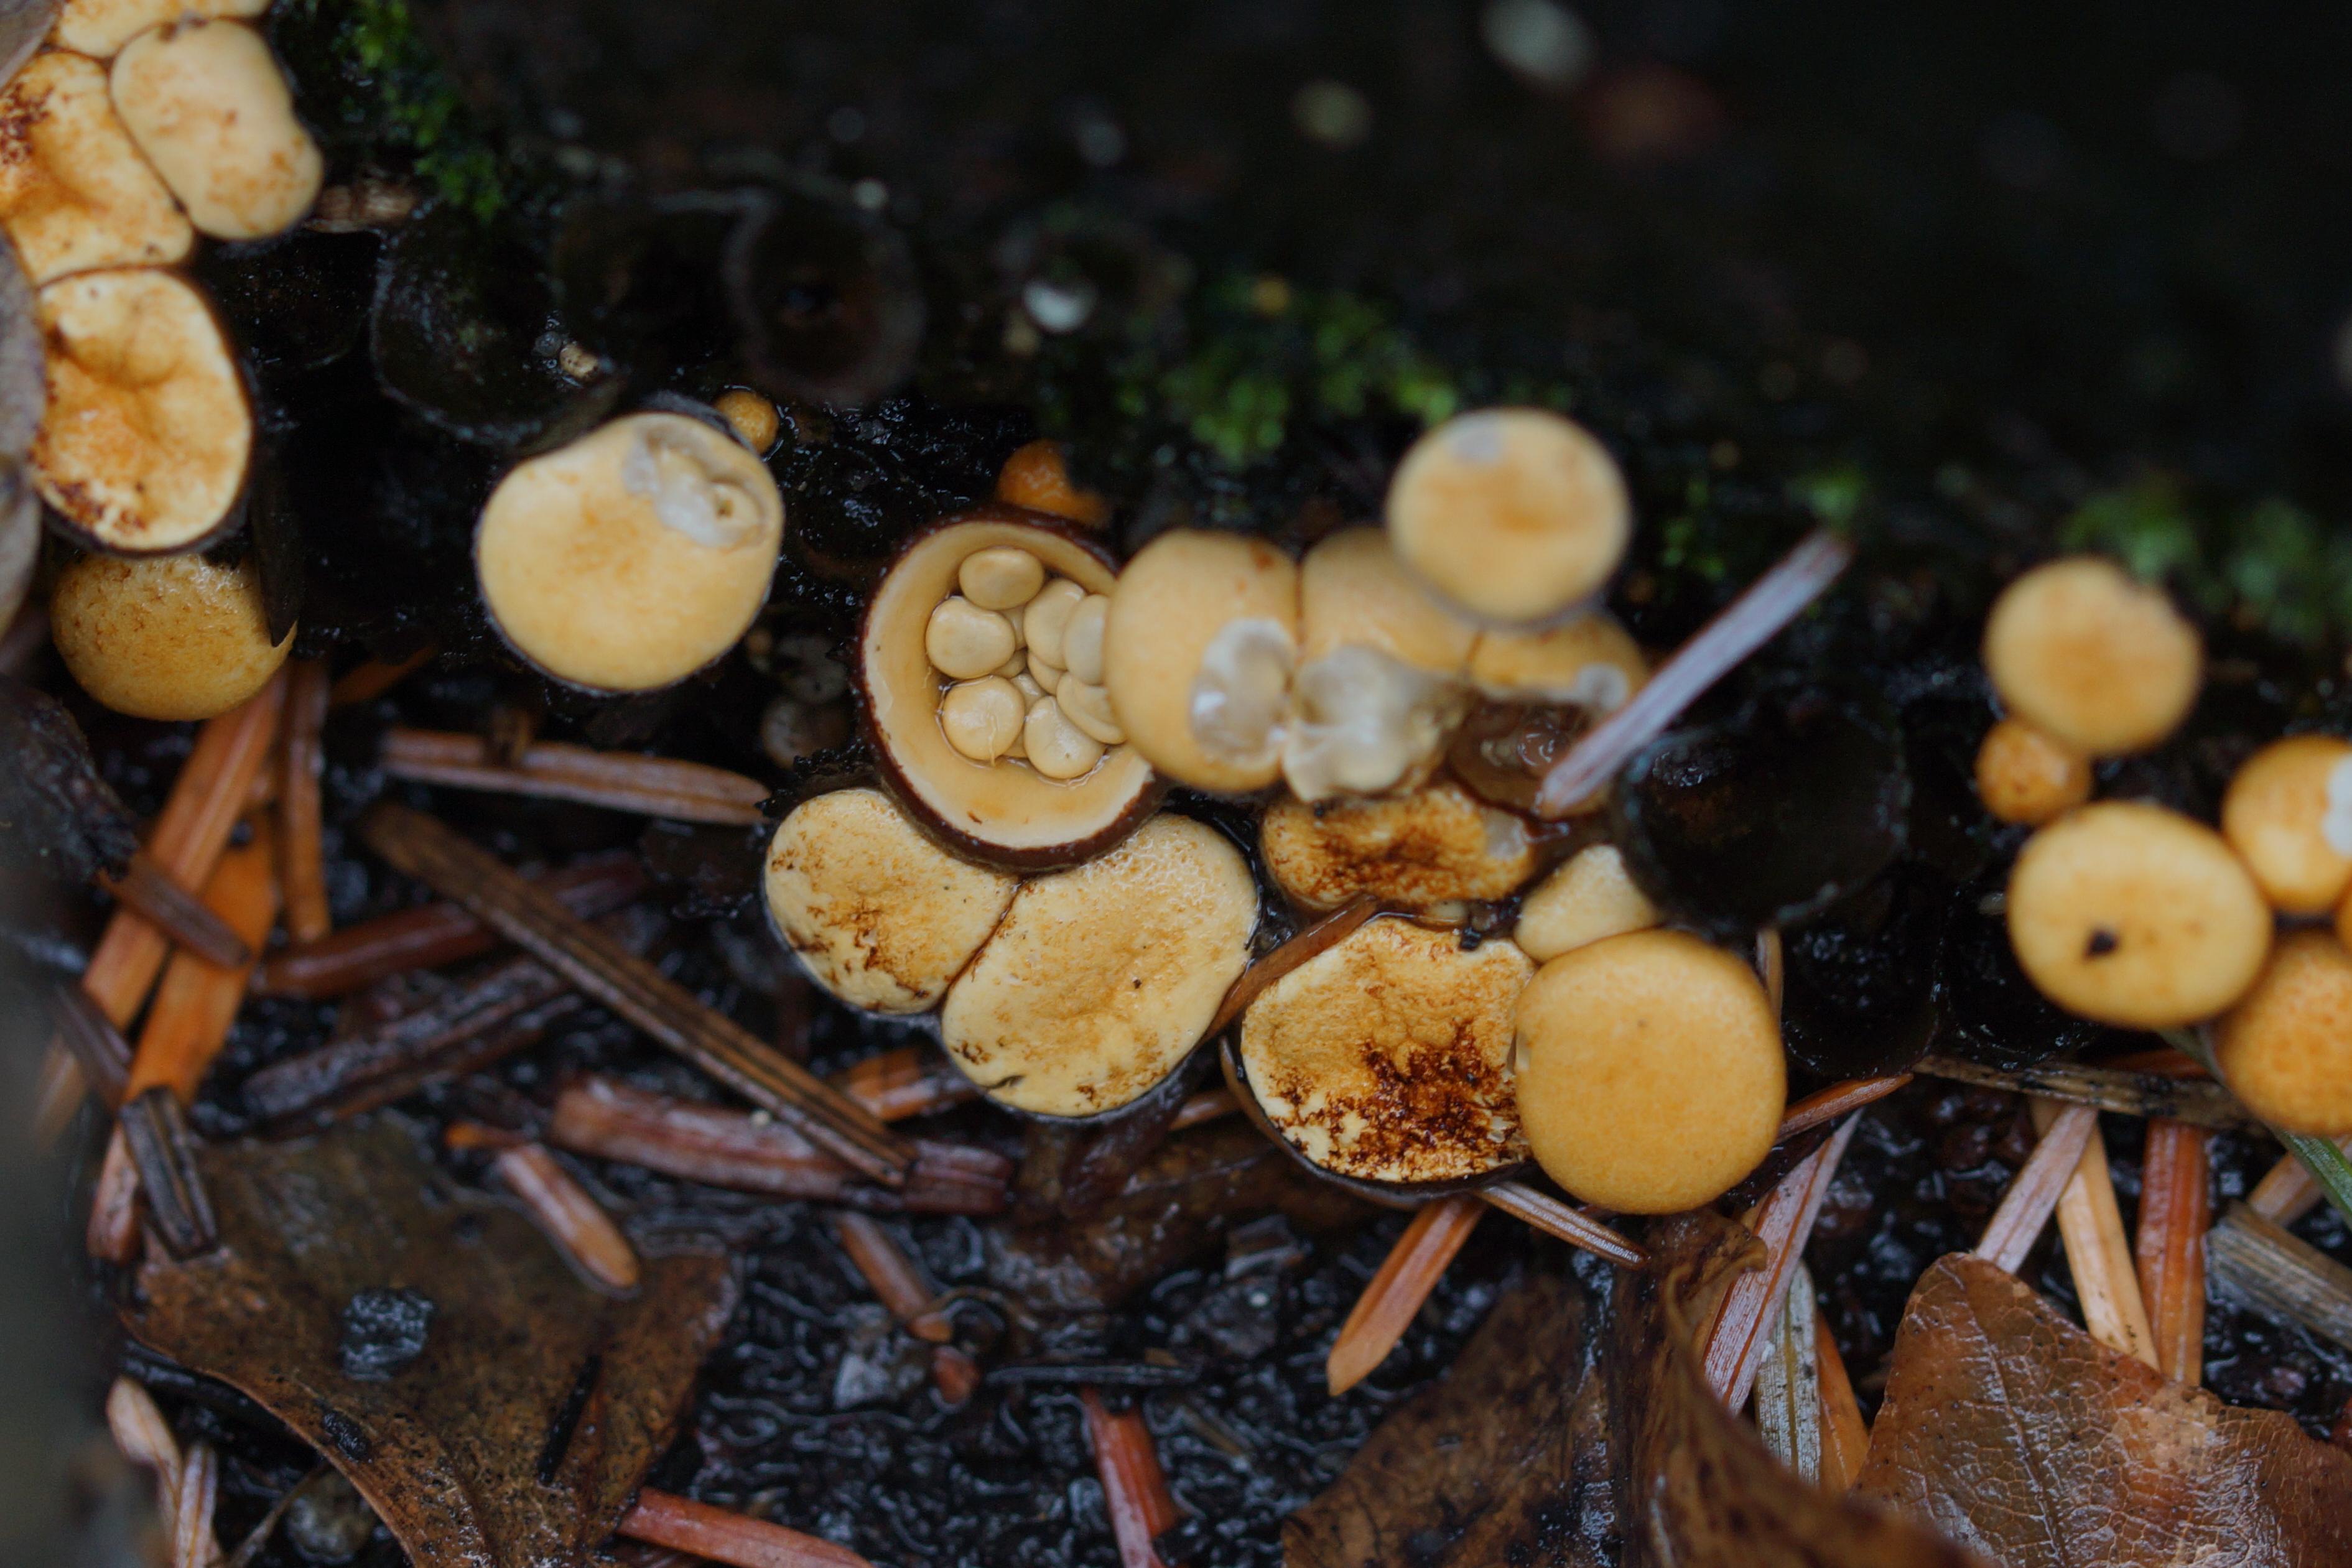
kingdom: Fungi
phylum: Basidiomycota
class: Agaricomycetes
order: Agaricales
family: Nidulariaceae
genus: Crucibulum
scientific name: Crucibulum crucibuliforme
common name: krukkesvamp
